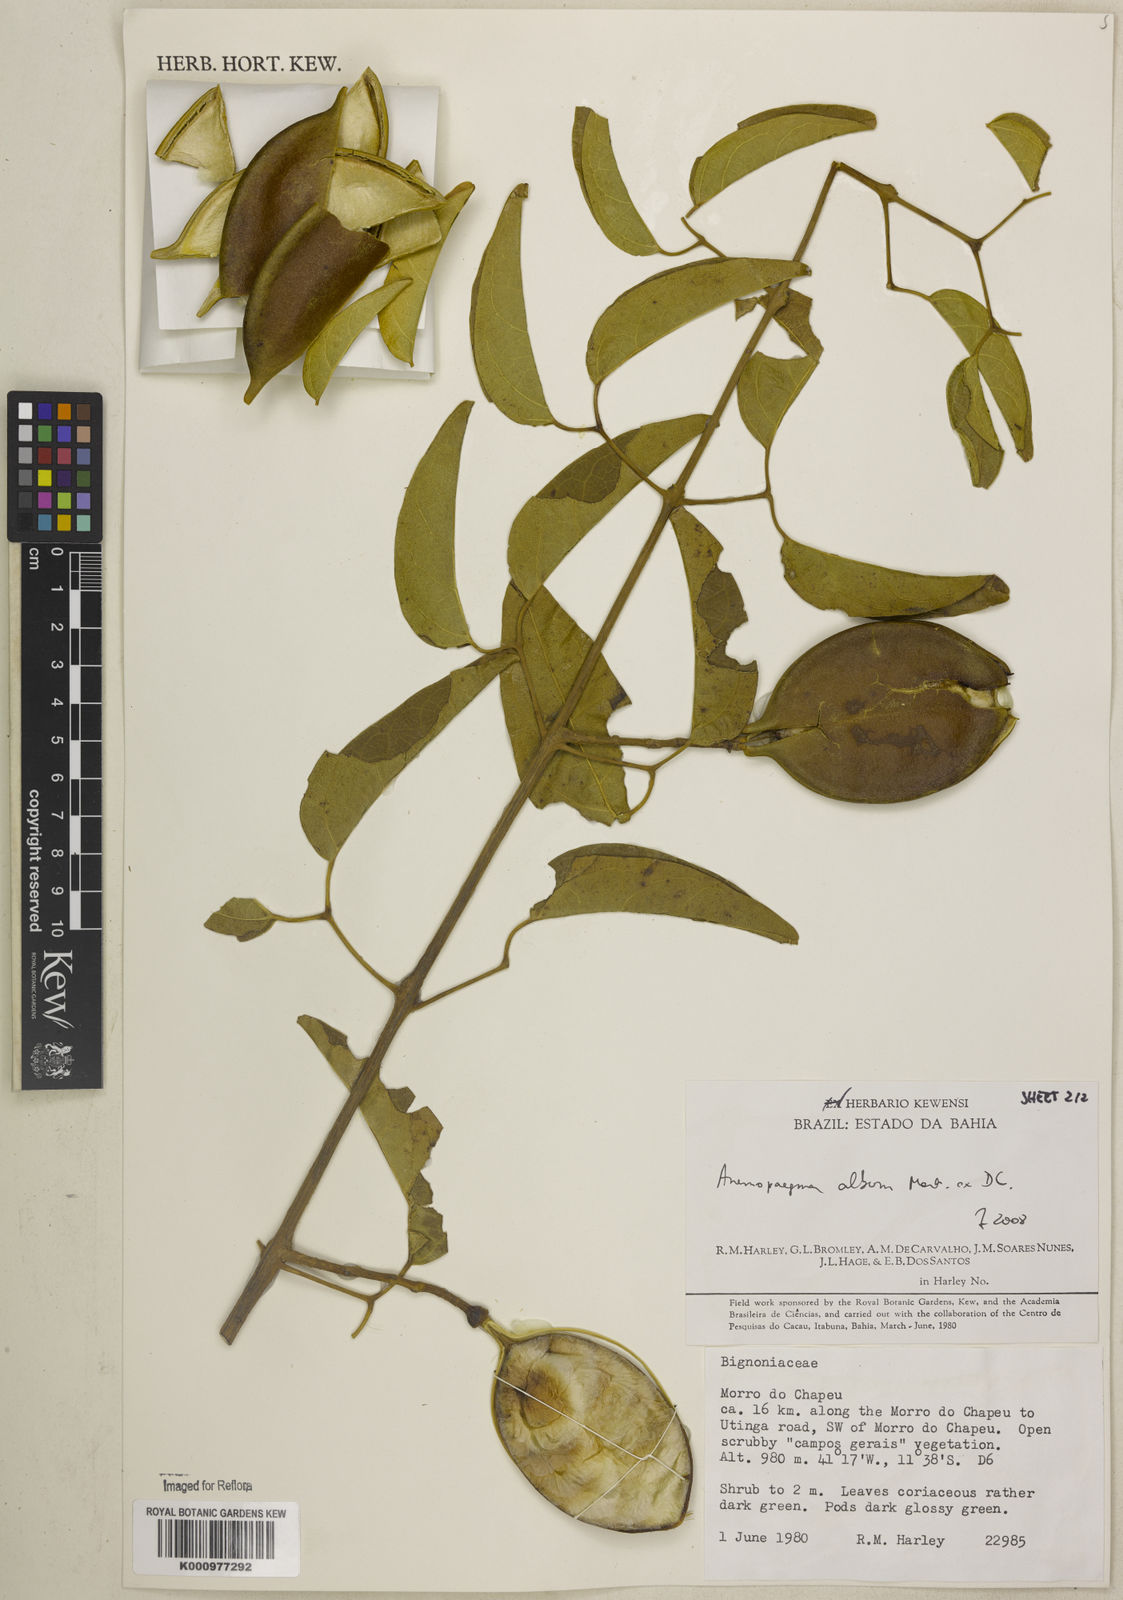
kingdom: Plantae
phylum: Tracheophyta
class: Magnoliopsida
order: Lamiales
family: Bignoniaceae
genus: Anemopaegma
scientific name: Anemopaegma album
